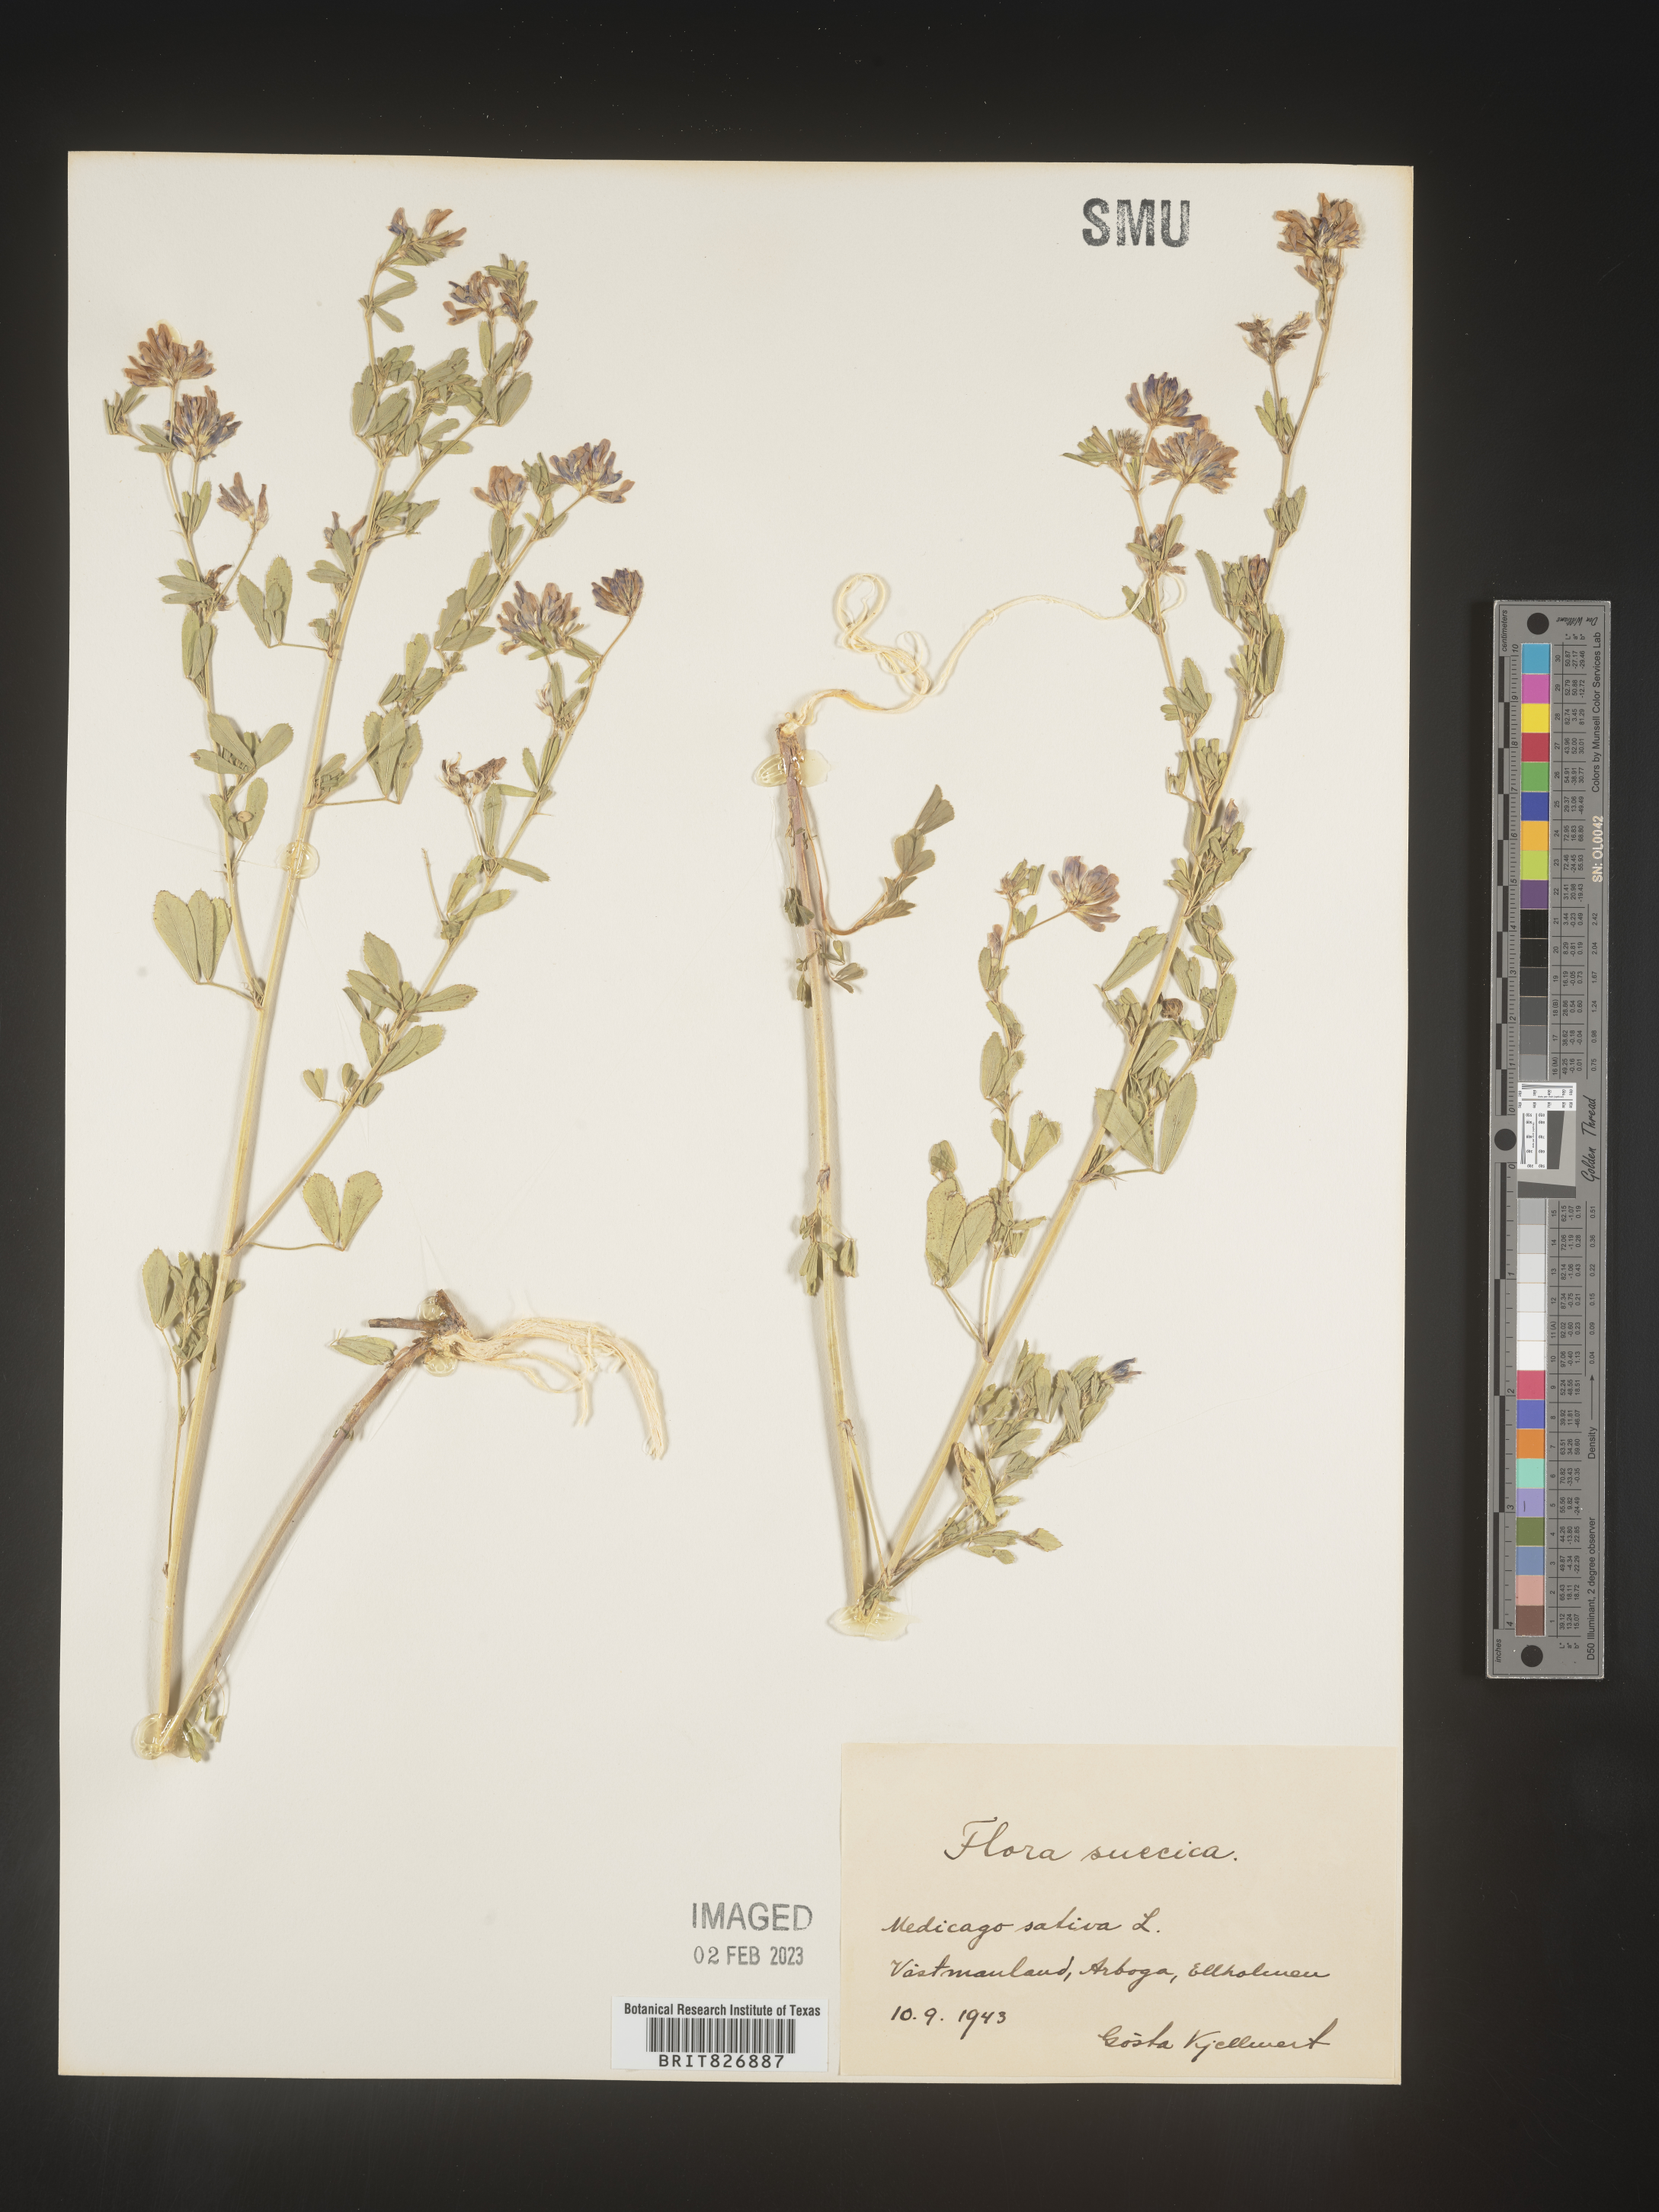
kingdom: Plantae
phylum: Tracheophyta
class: Magnoliopsida
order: Fabales
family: Fabaceae
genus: Medicago
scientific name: Medicago
